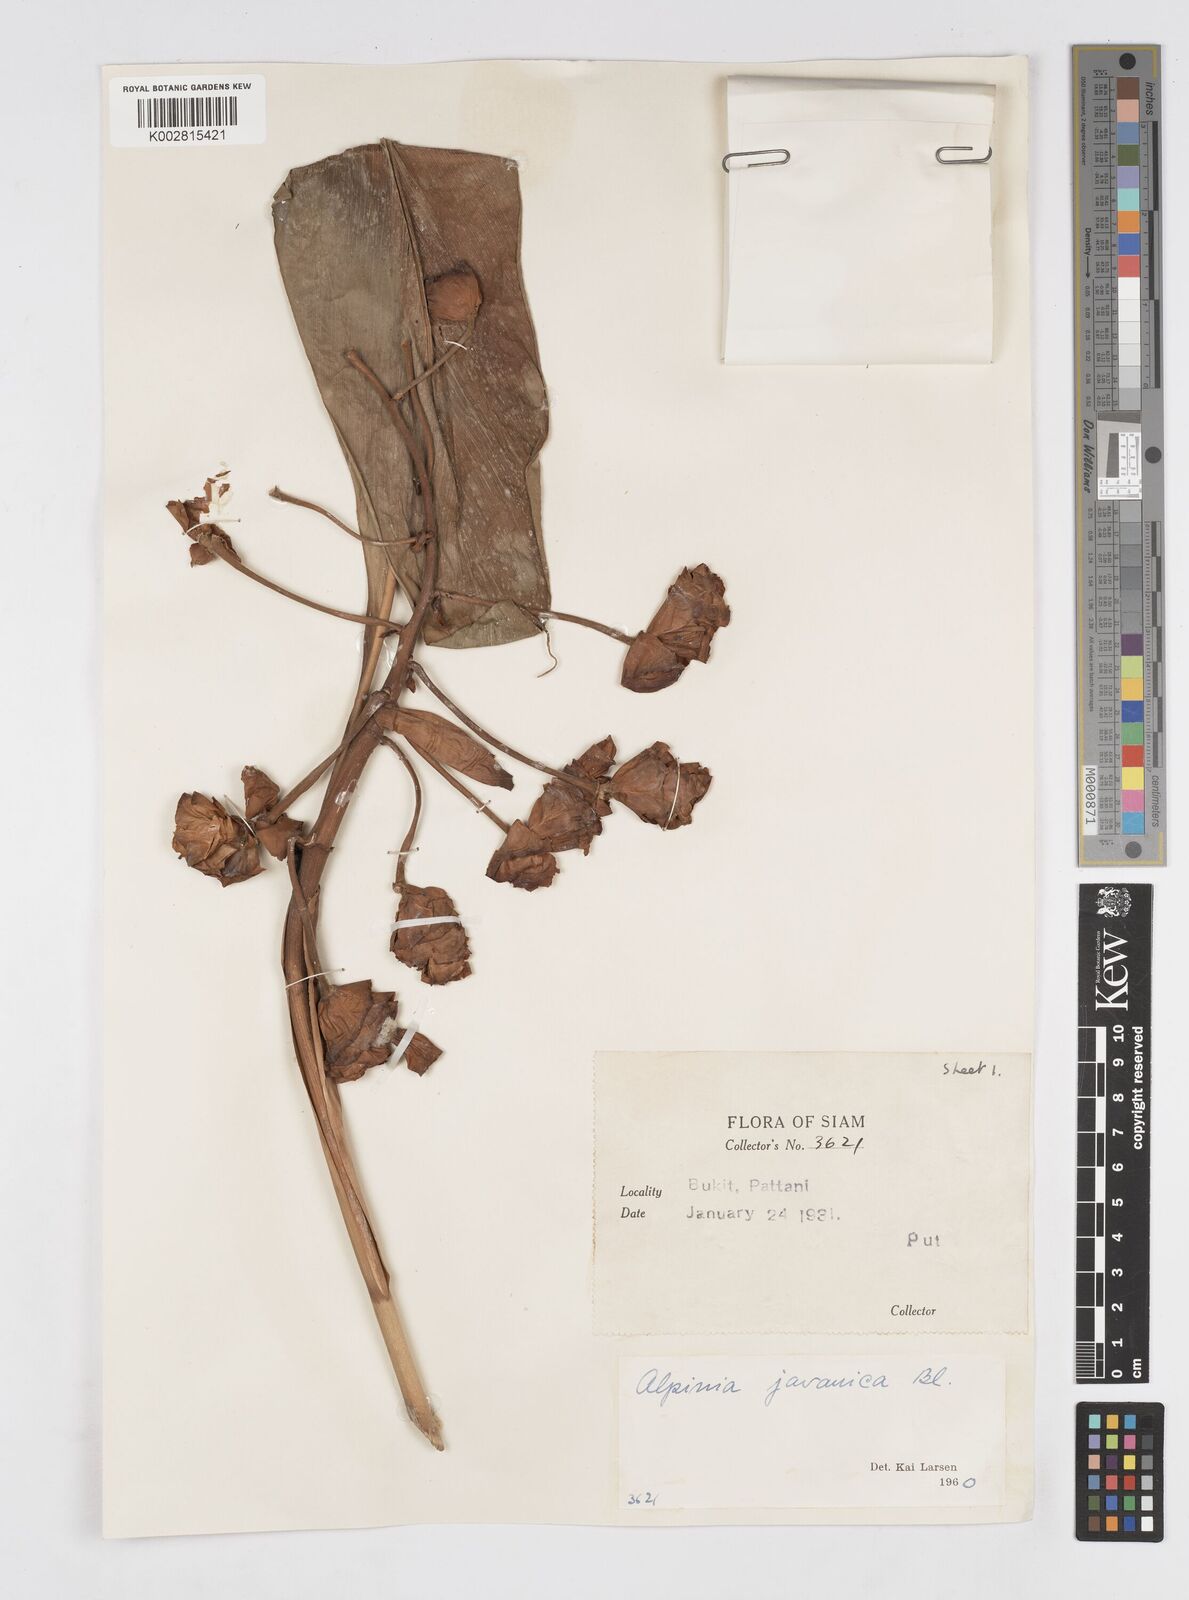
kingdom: Plantae
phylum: Tracheophyta
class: Liliopsida
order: Zingiberales
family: Zingiberaceae
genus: Alpinia
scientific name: Alpinia javanica
